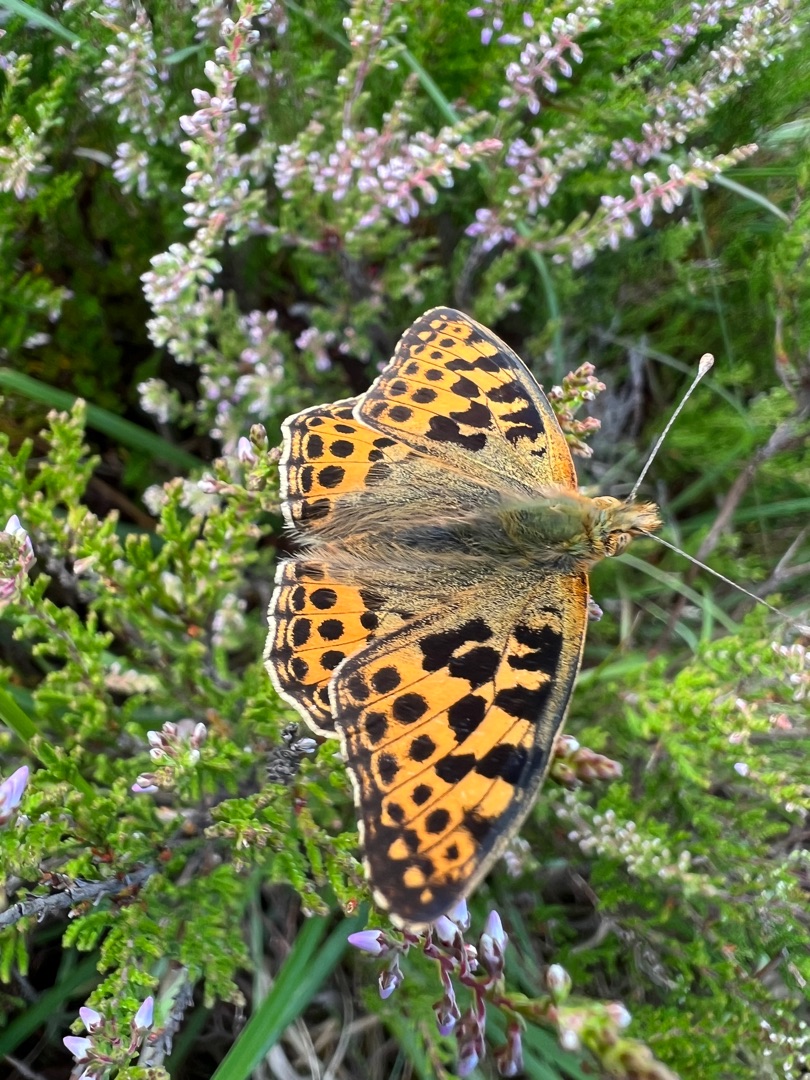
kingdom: Animalia
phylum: Arthropoda
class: Insecta
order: Lepidoptera
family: Nymphalidae
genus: Issoria
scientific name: Issoria lathonia
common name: Storplettet perlemorsommerfugl
